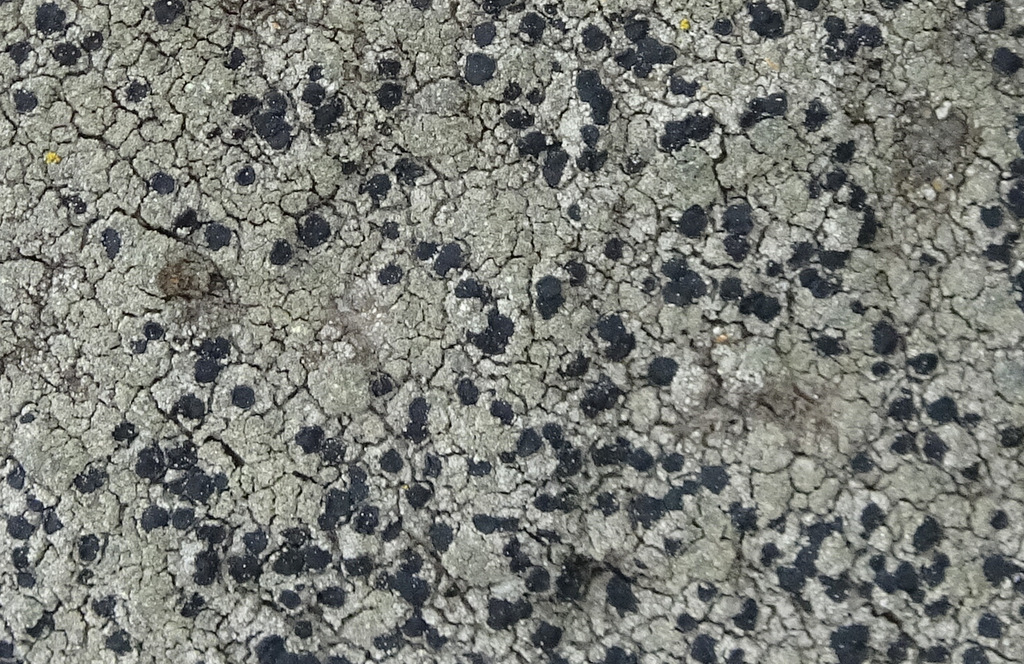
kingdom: Fungi
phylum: Ascomycota
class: Lecanoromycetes
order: Lecanorales
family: Lecanoraceae
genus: Lecidella
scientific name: Lecidella scabra
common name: skurvet skivelav
